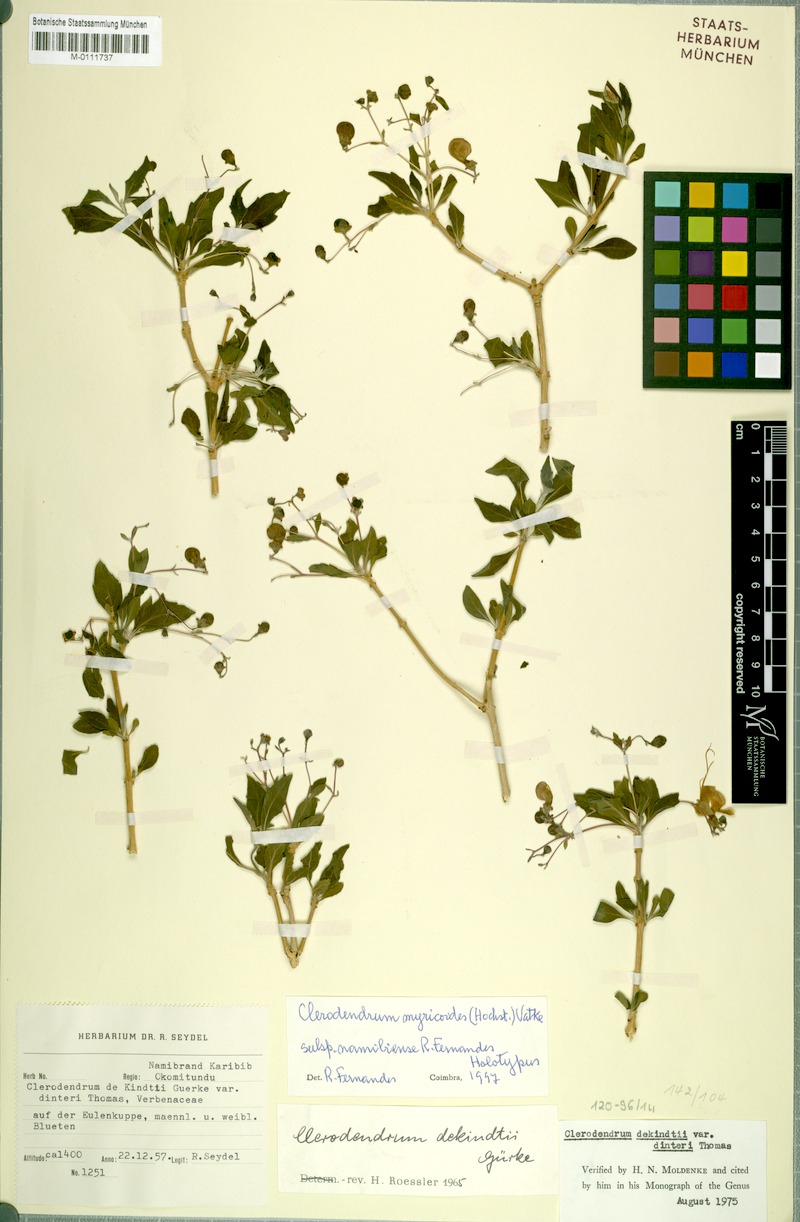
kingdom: Plantae
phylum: Tracheophyta
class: Magnoliopsida
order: Lamiales
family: Lamiaceae
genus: Rotheca
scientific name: Rotheca myricoides
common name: Cats-whiskers
